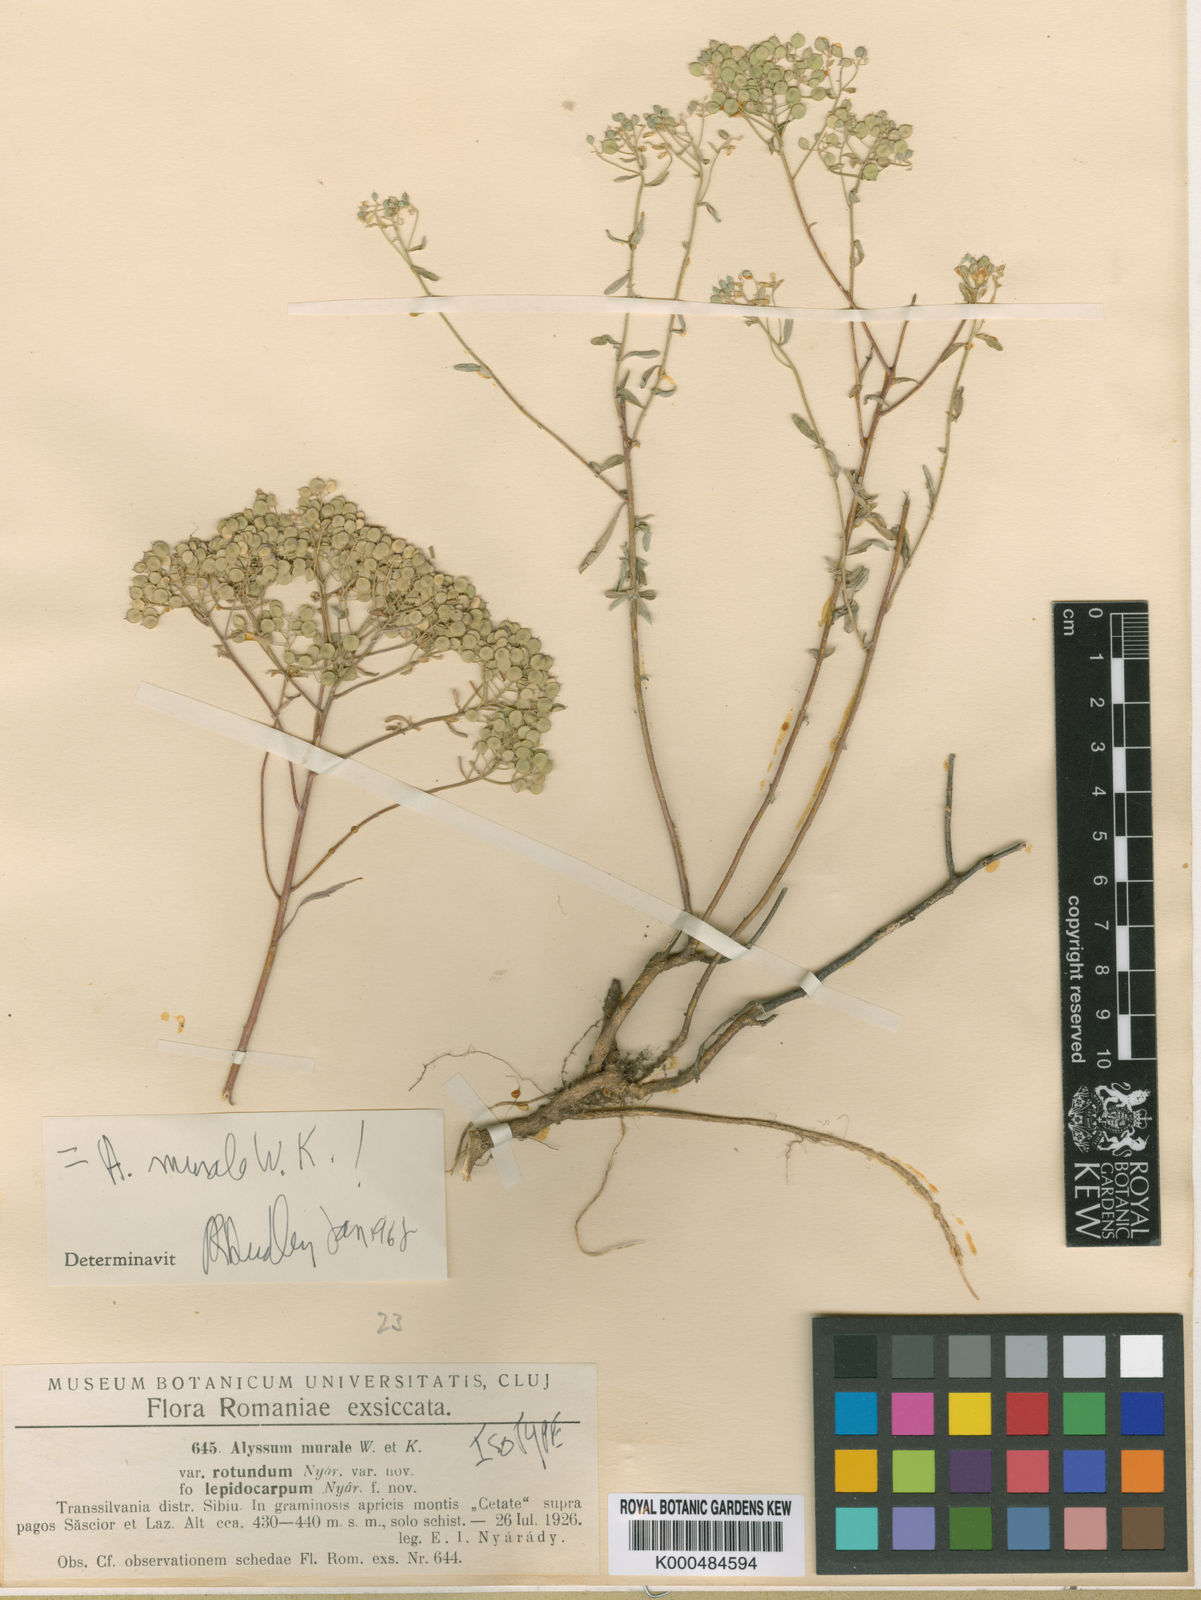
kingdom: Plantae
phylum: Tracheophyta
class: Magnoliopsida
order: Brassicales
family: Brassicaceae
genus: Odontarrhena
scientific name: Odontarrhena muralis
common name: Rock alyssum
